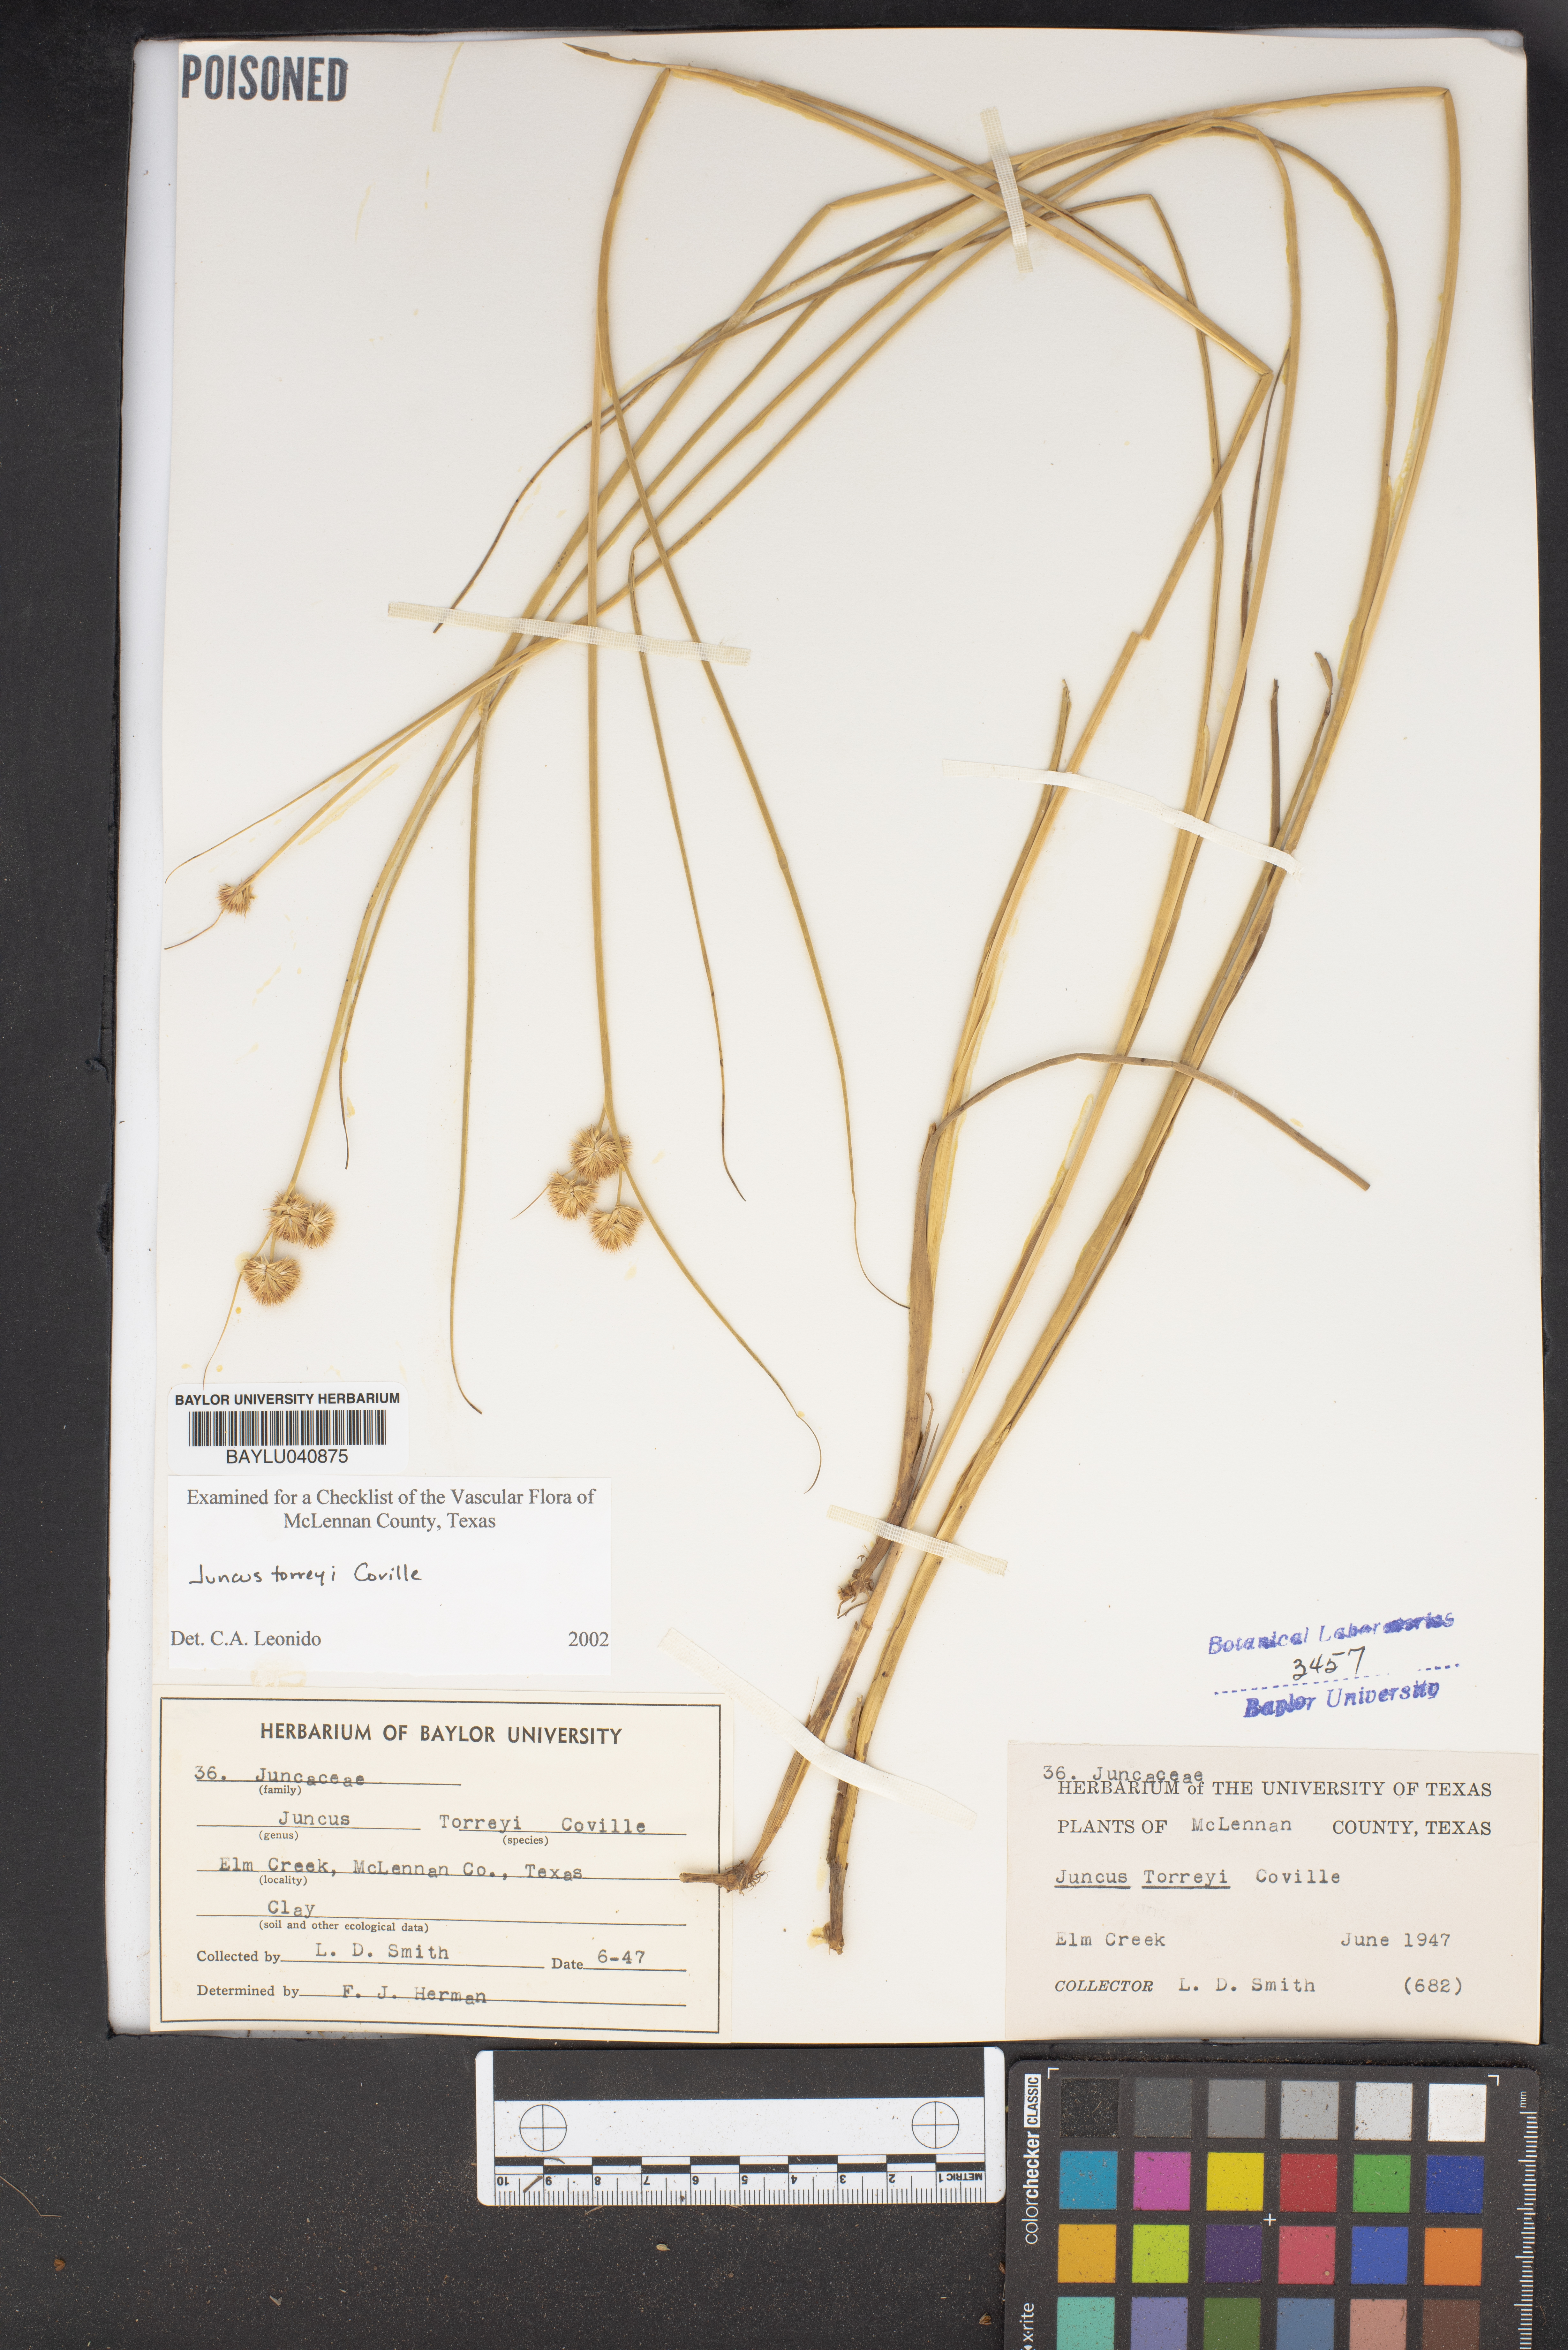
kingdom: Plantae
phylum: Tracheophyta
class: Liliopsida
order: Poales
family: Juncaceae
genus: Juncus
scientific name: Juncus torreyi
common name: Torrey's rush
